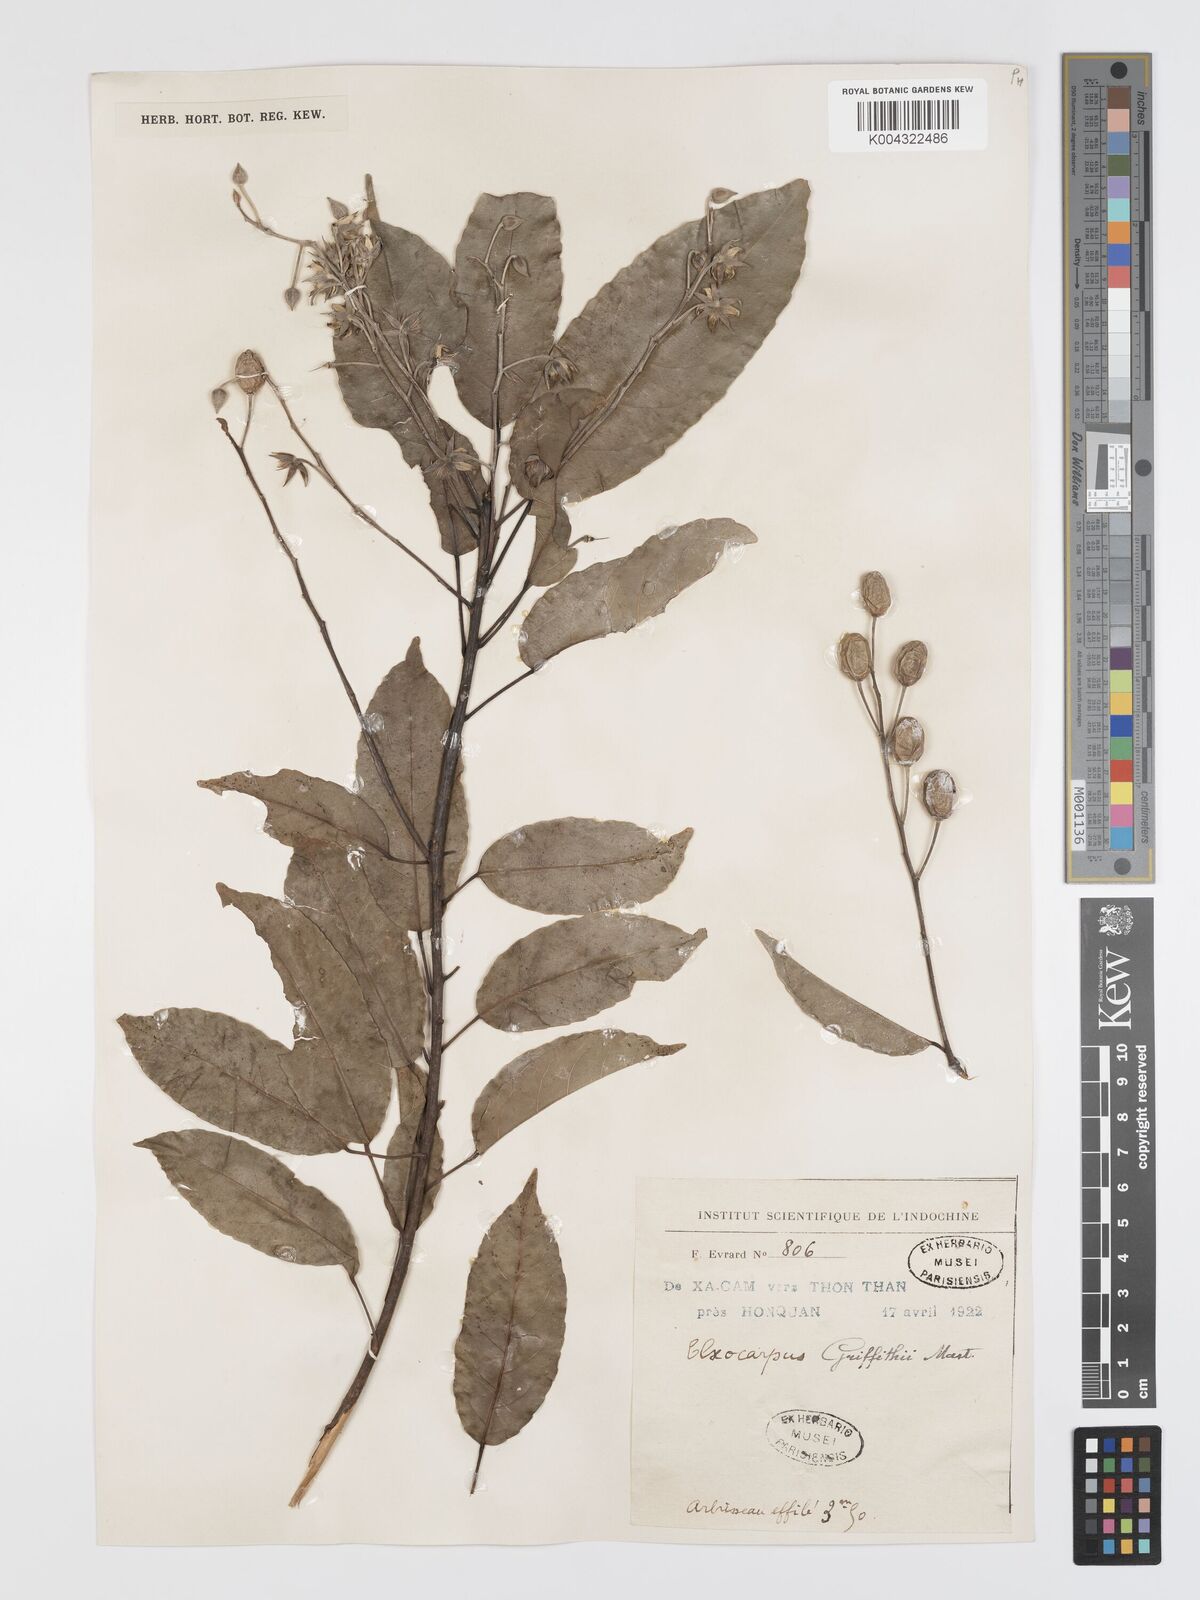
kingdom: Plantae
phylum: Tracheophyta
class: Magnoliopsida
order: Oxalidales
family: Elaeocarpaceae
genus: Elaeocarpus
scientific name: Elaeocarpus griffithii
